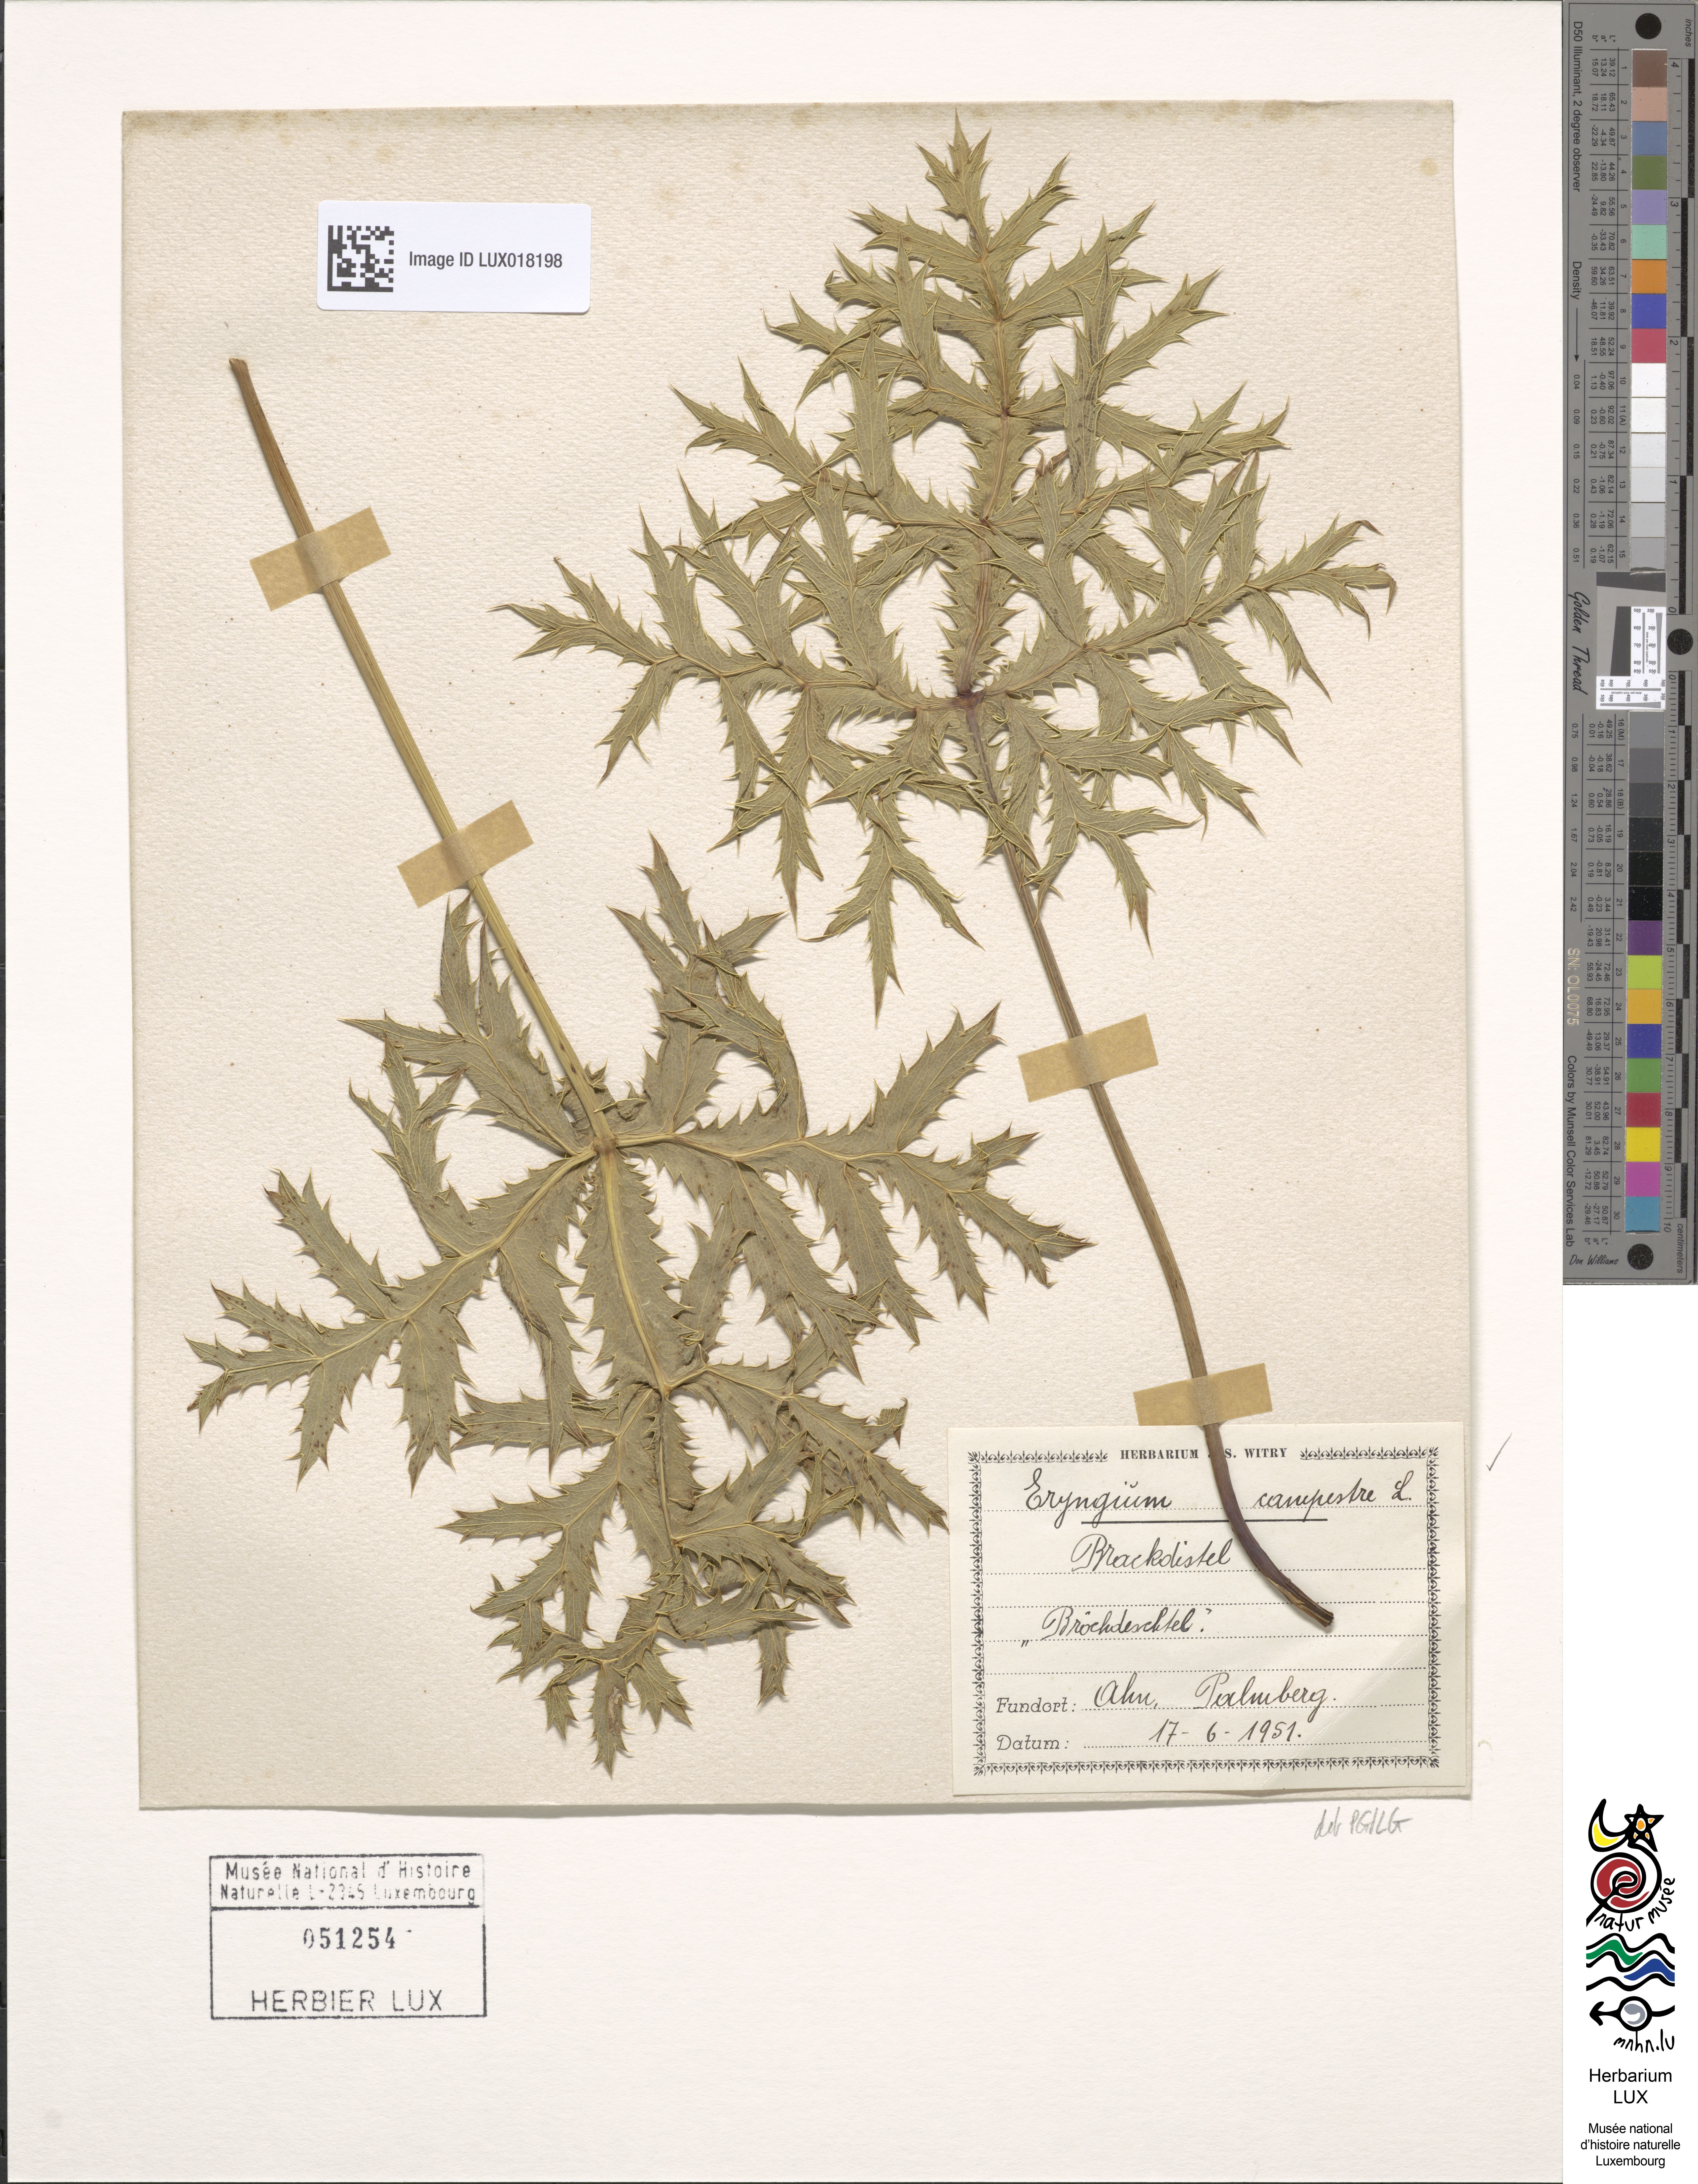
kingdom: Plantae
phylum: Tracheophyta
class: Magnoliopsida
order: Apiales
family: Apiaceae
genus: Eryngium
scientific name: Eryngium campestre
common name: Field eryngo
